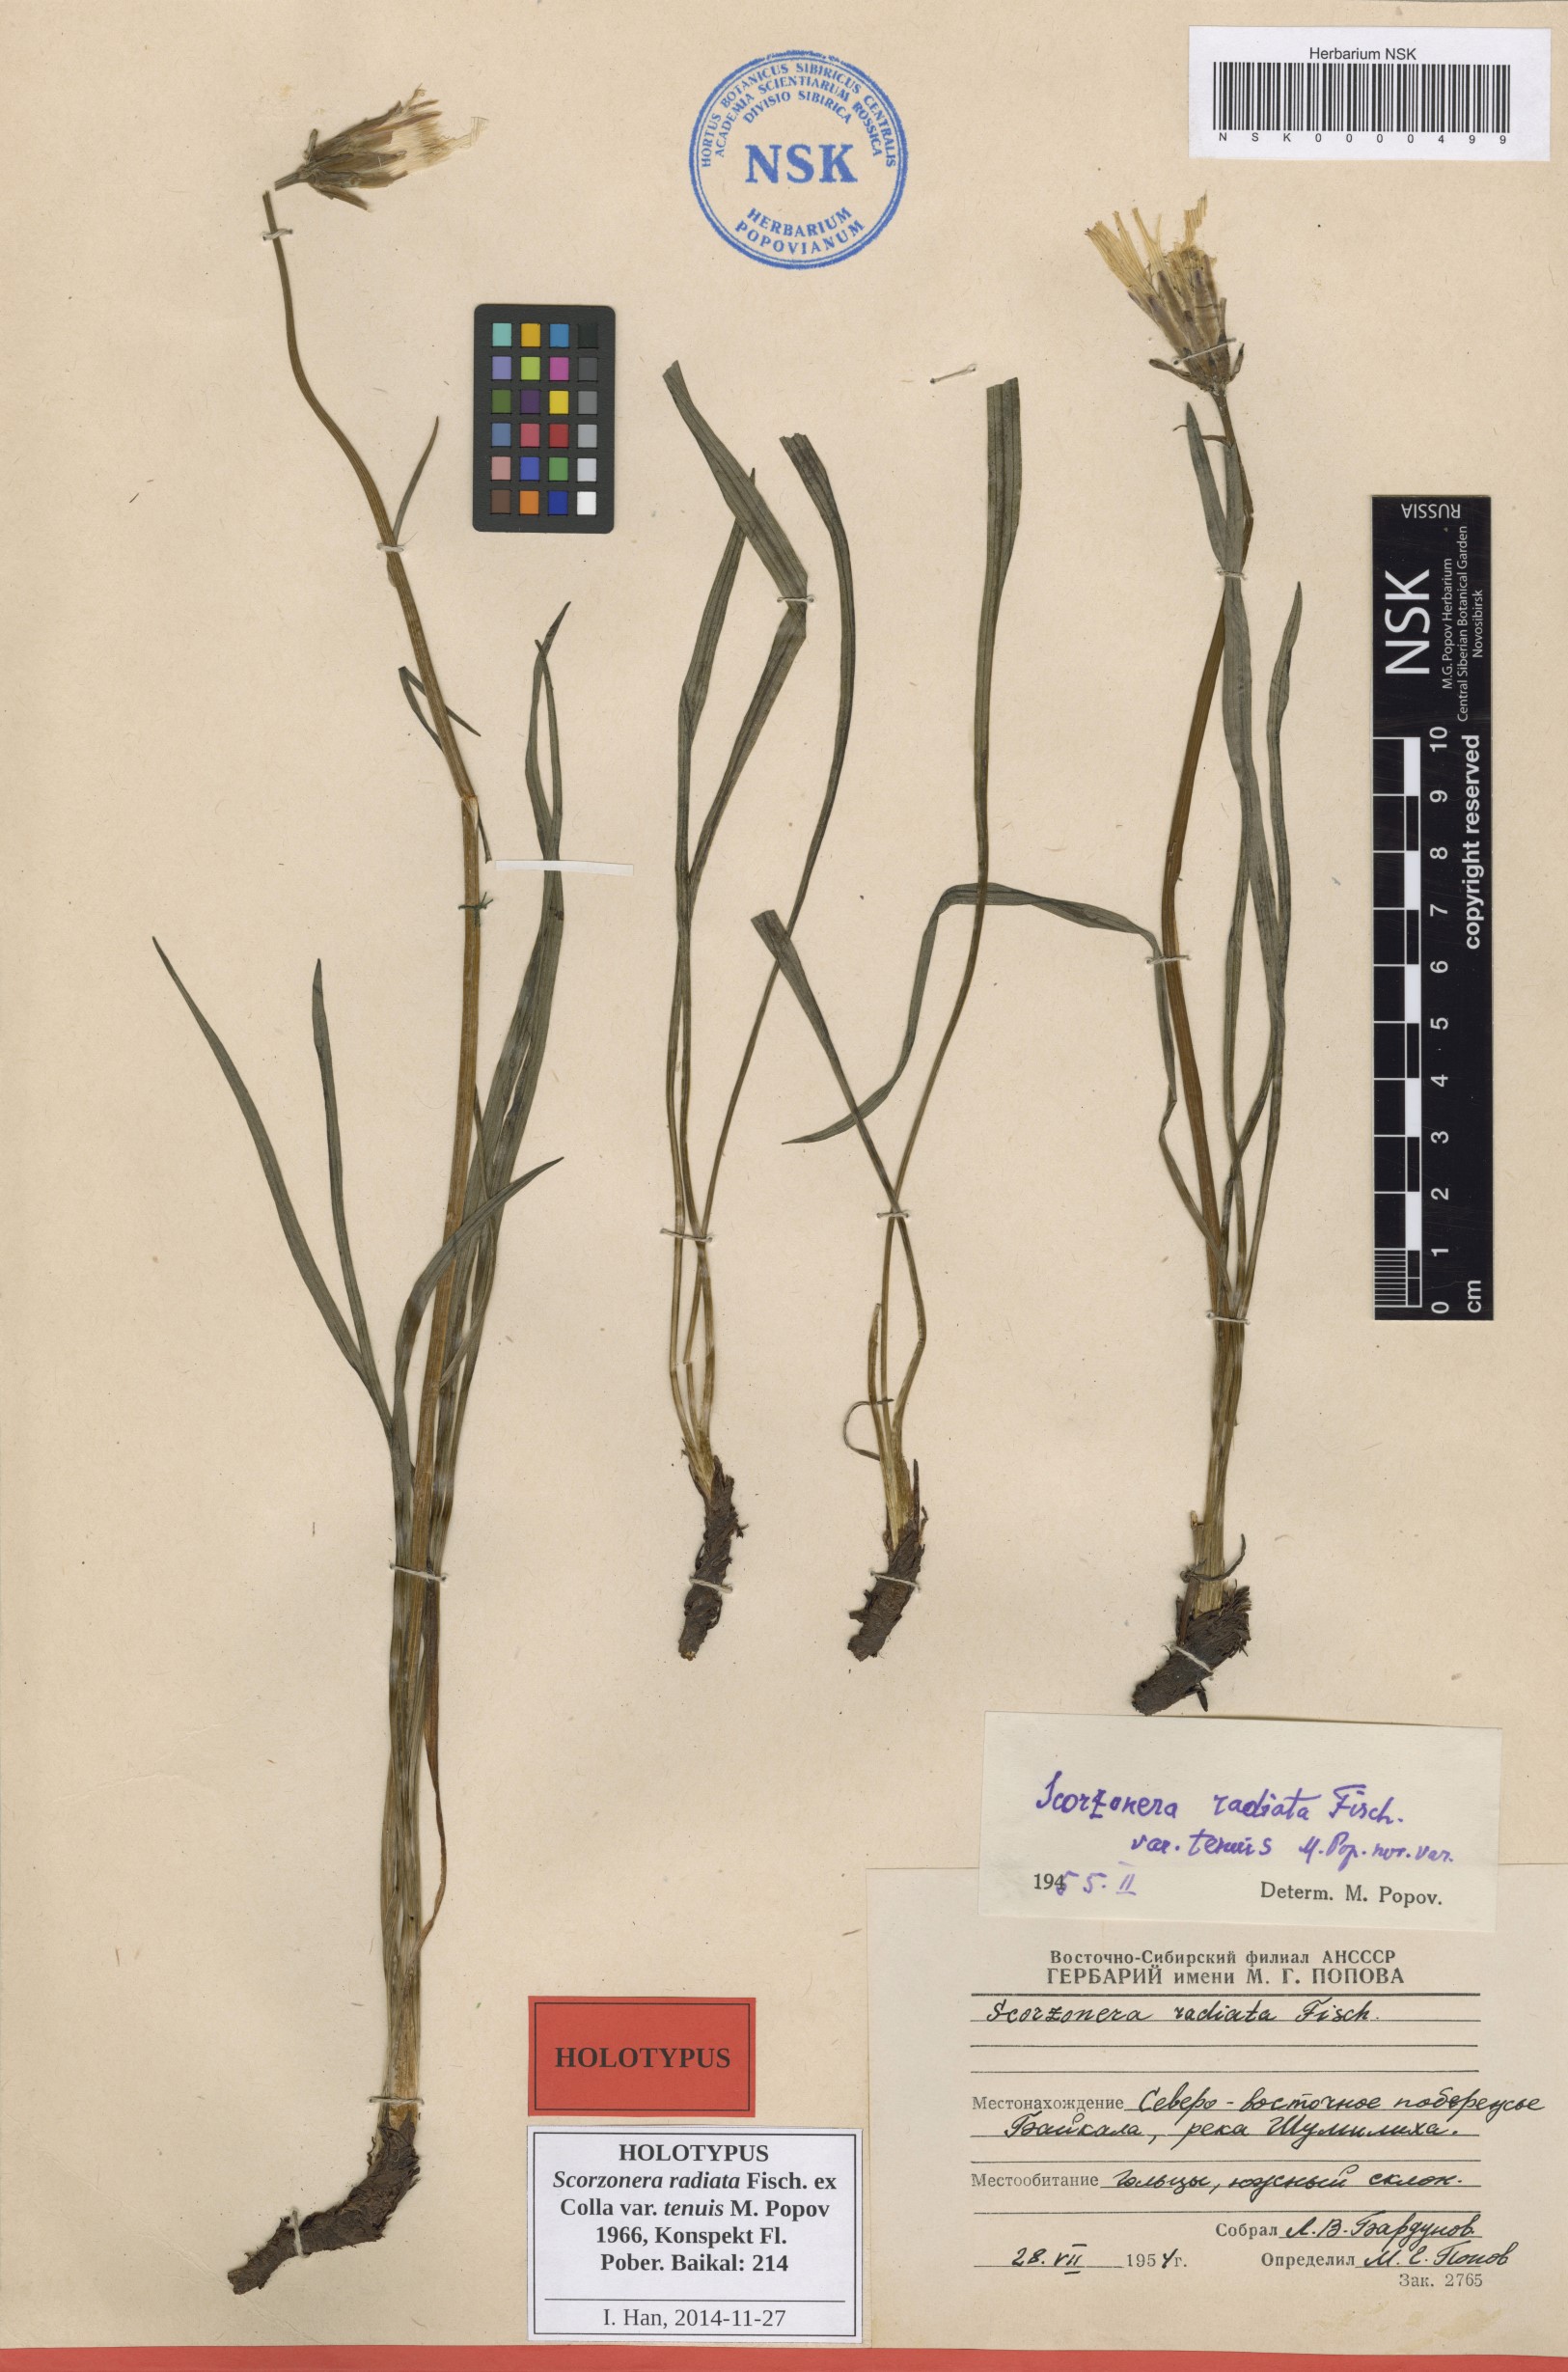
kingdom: Plantae
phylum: Tracheophyta
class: Magnoliopsida
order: Asterales
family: Asteraceae
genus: Scorzonera
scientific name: Scorzonera radiata
